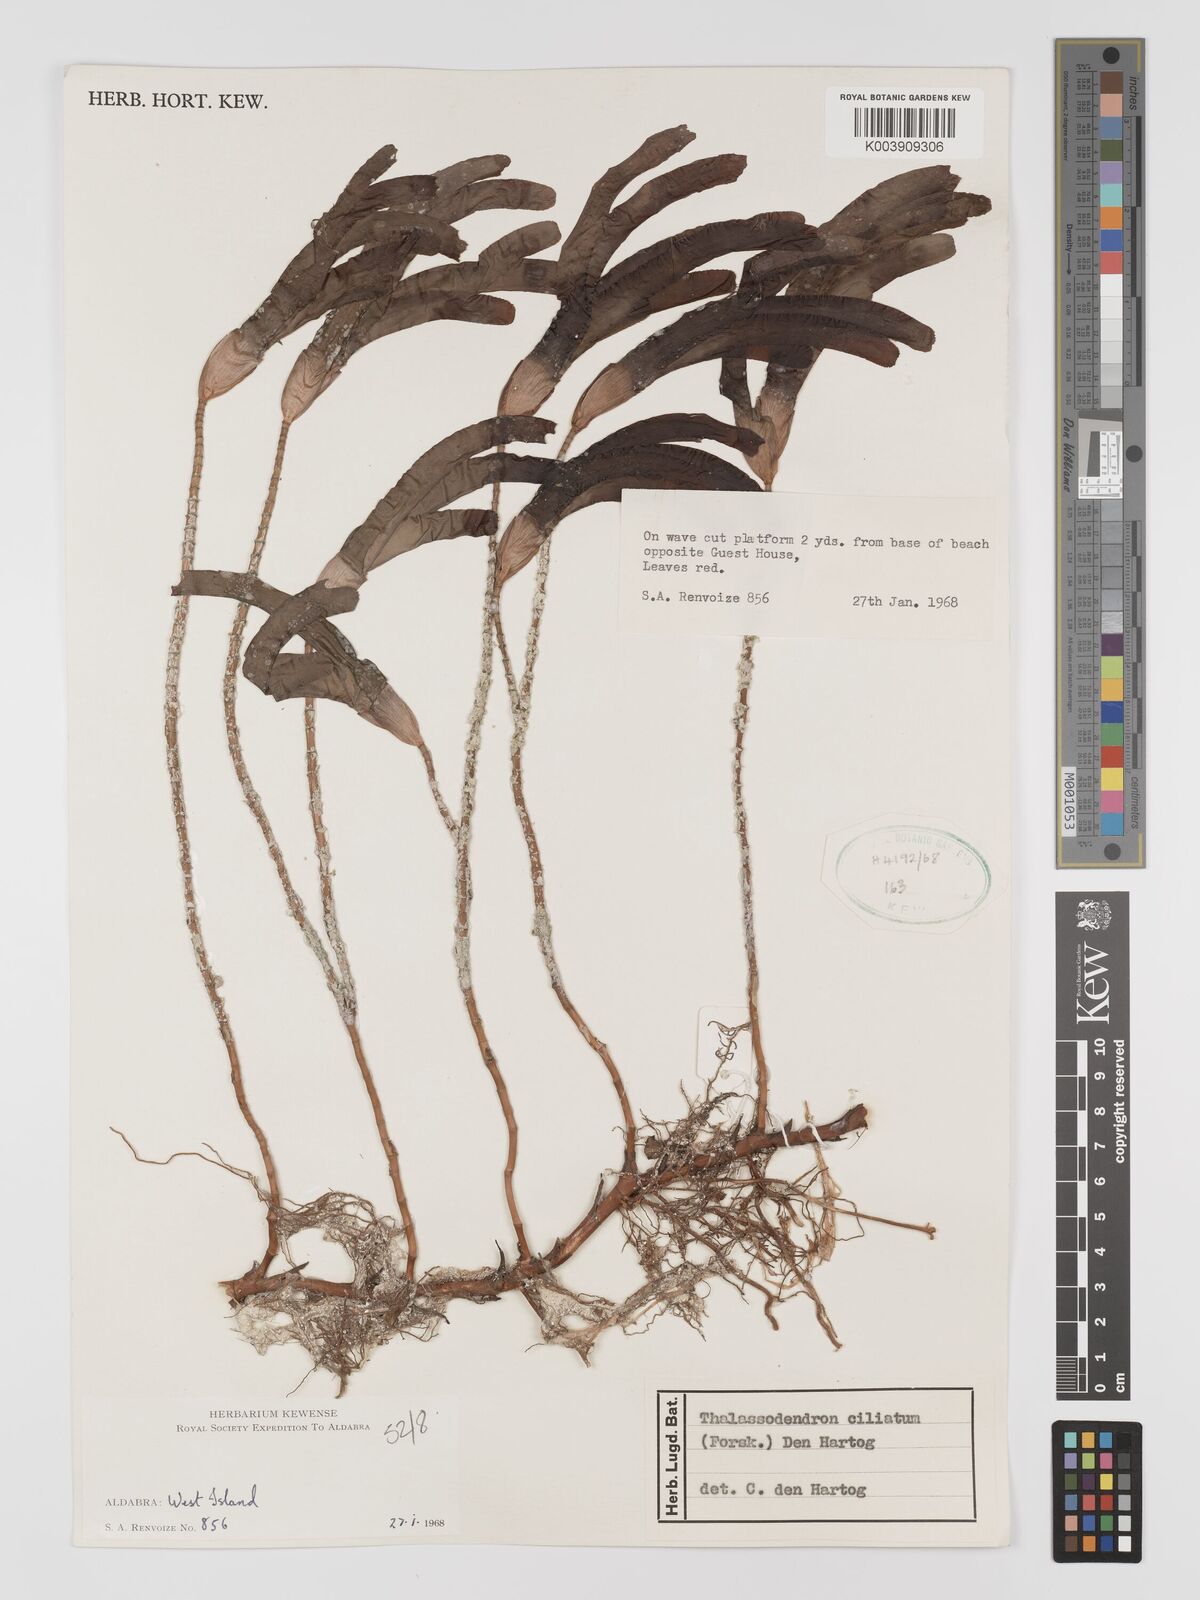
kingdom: Plantae
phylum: Tracheophyta
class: Liliopsida
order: Alismatales
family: Cymodoceaceae
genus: Thalassodendron
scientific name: Thalassodendron ciliatum
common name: Species code: tc
